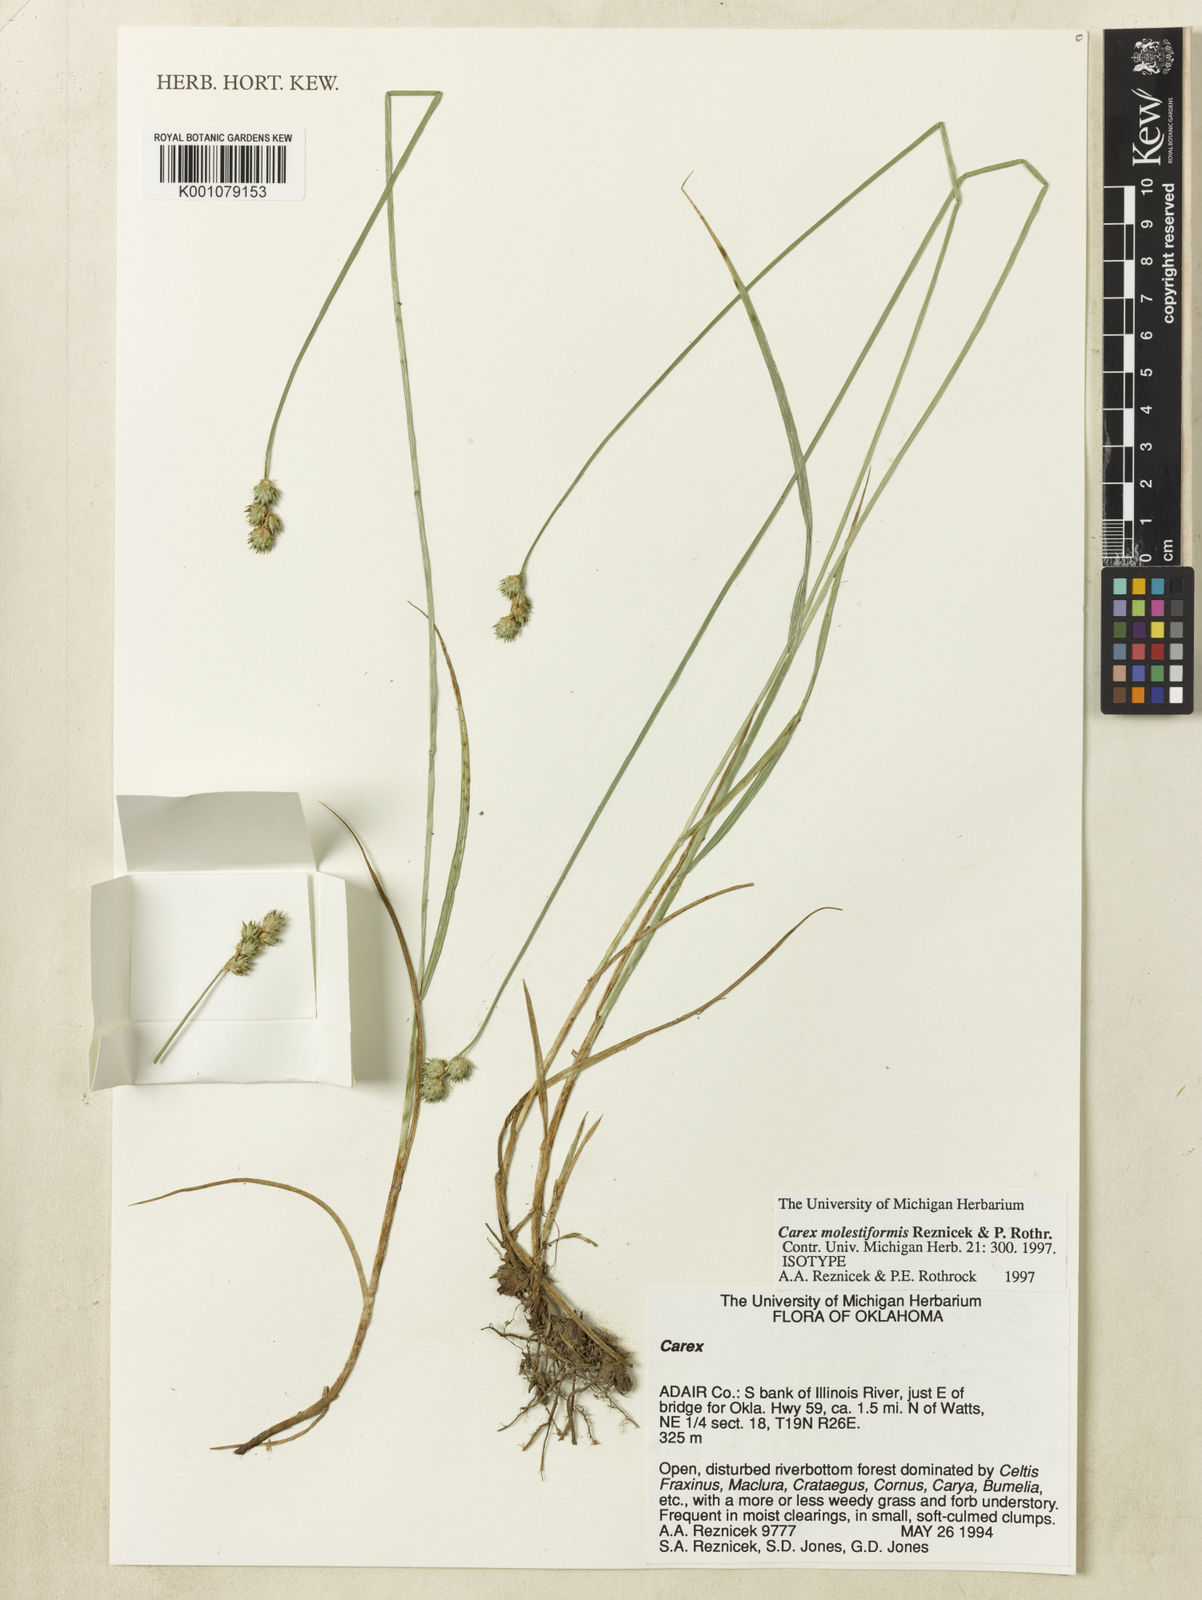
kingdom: Plantae
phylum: Tracheophyta
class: Liliopsida
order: Poales
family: Cyperaceae
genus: Carex
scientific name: Carex molestiformis
